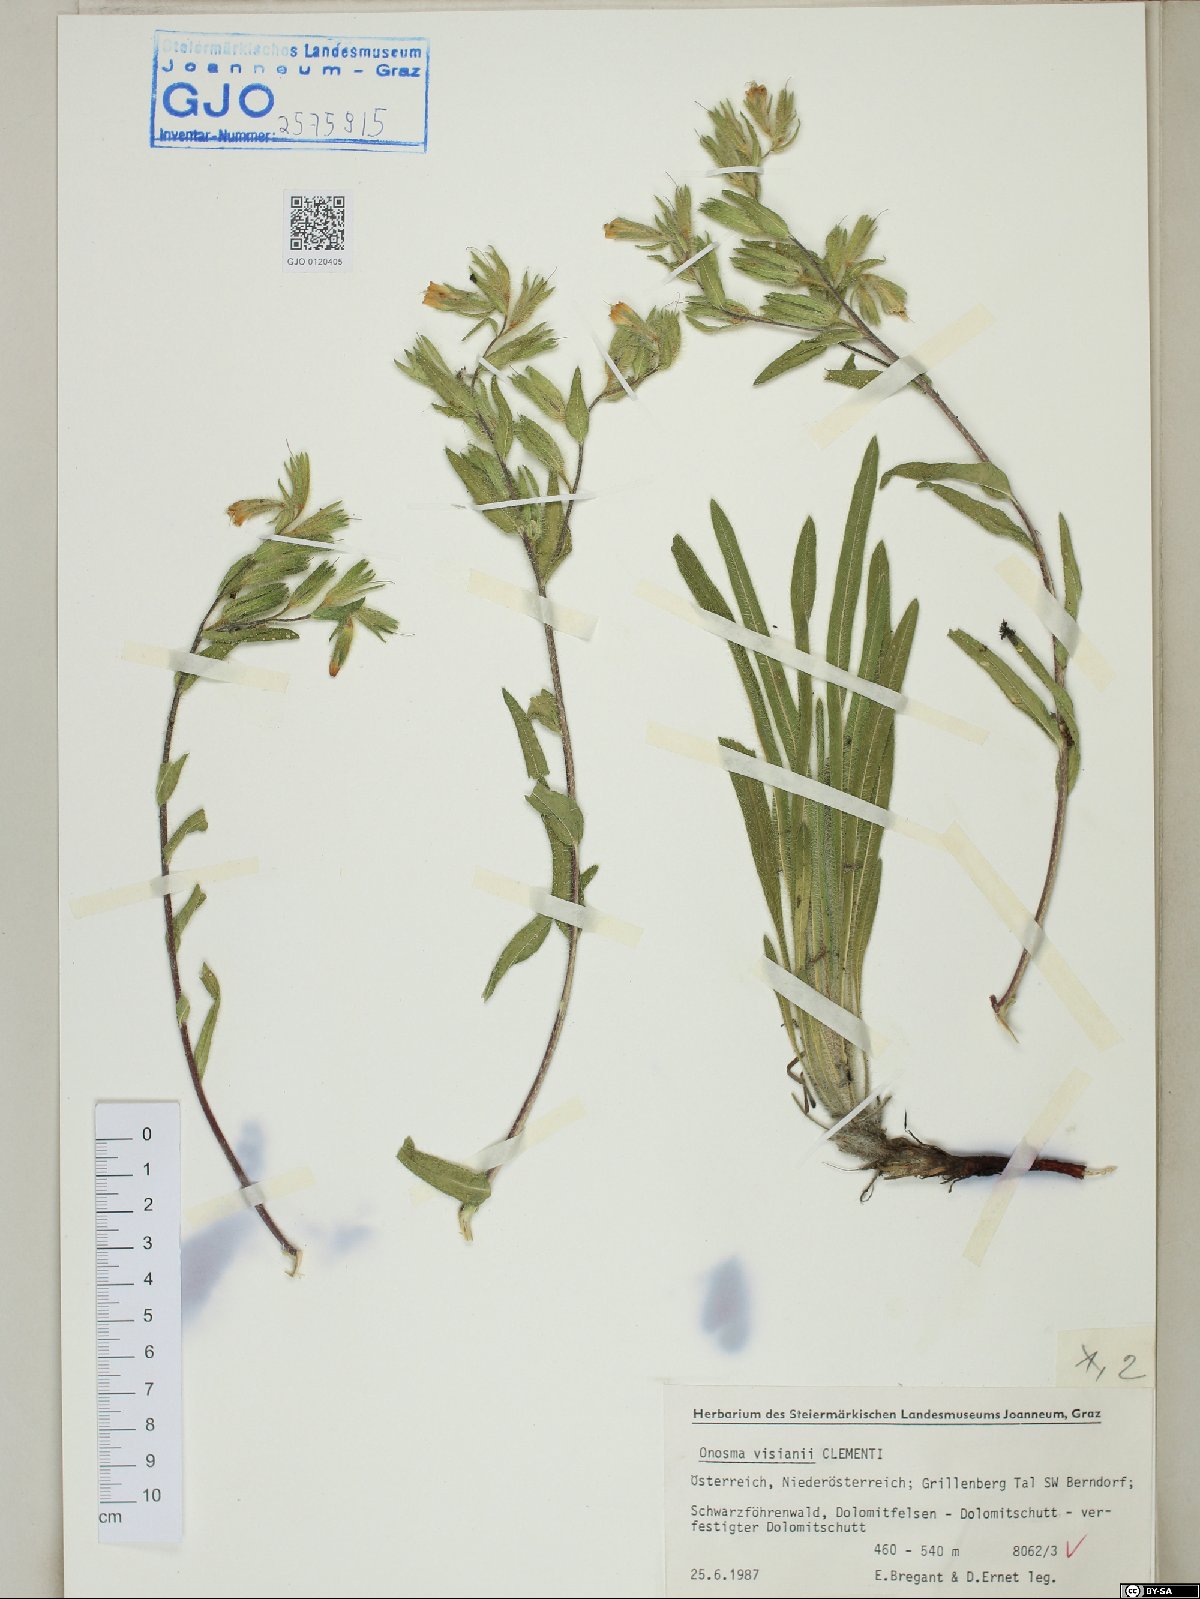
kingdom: Plantae
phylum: Tracheophyta
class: Magnoliopsida
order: Boraginales
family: Boraginaceae
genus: Onosma
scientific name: Onosma visianii
